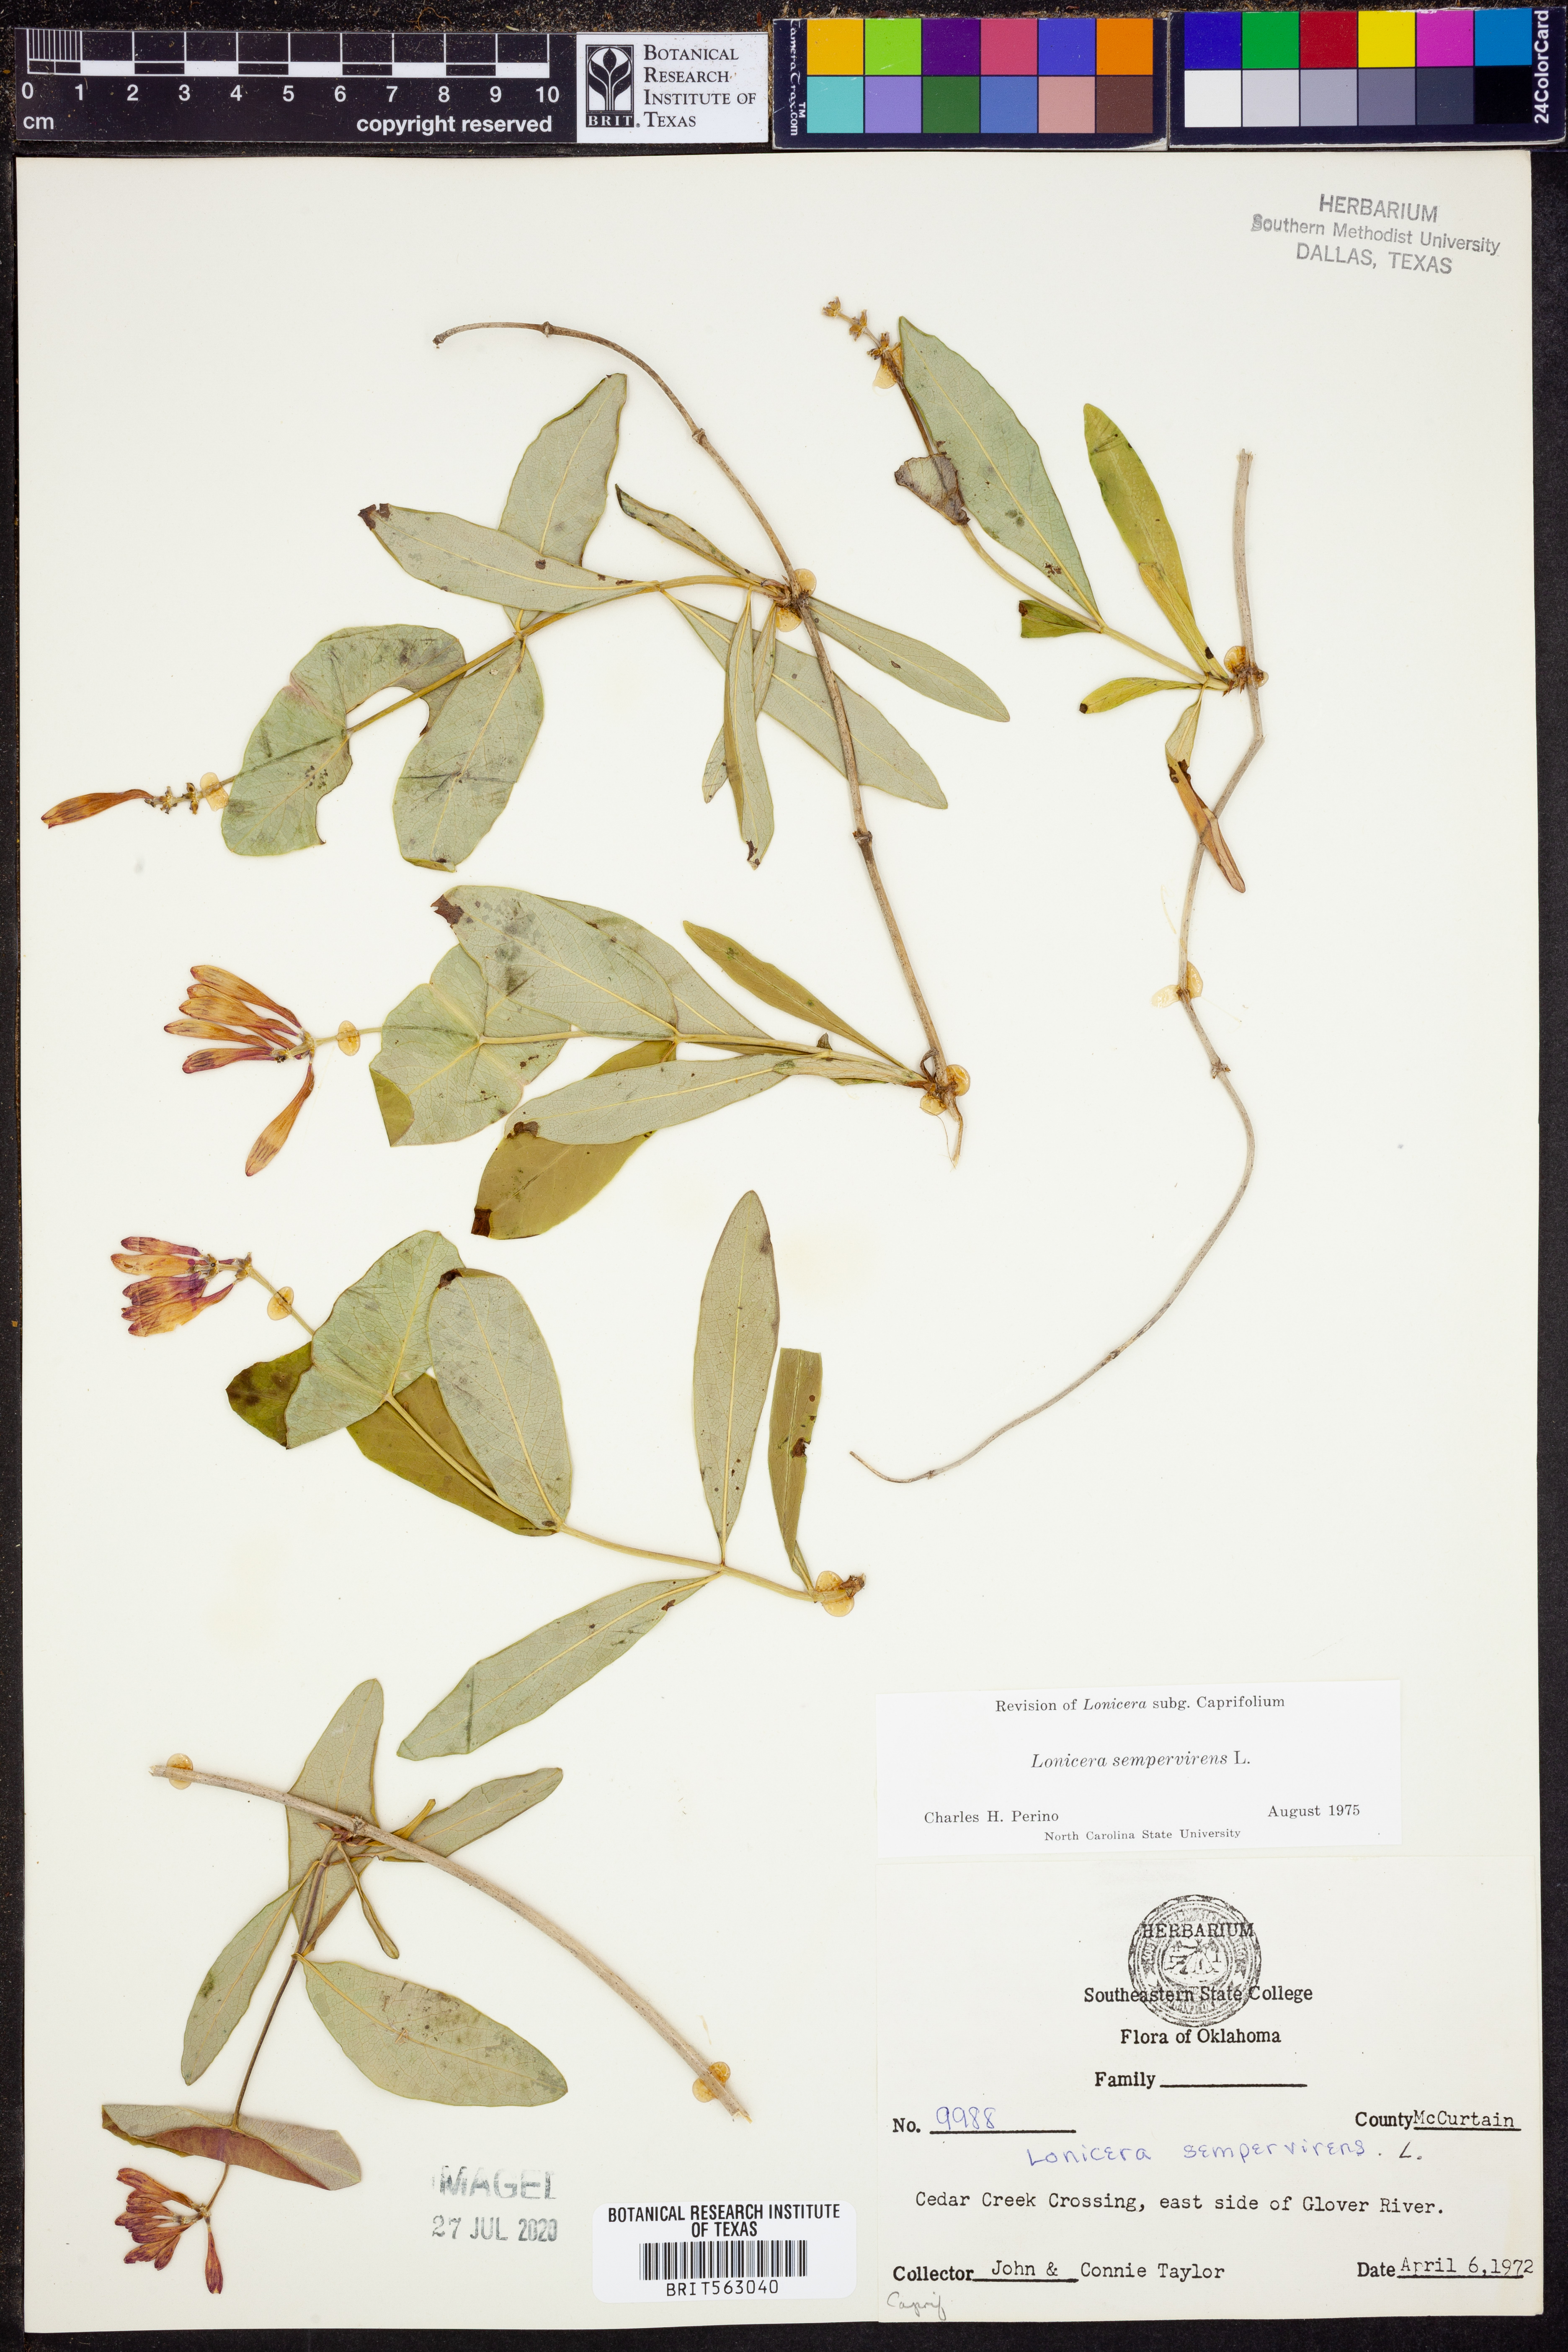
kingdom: Plantae
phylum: Tracheophyta
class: Magnoliopsida
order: Dipsacales
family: Caprifoliaceae
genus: Lonicera
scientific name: Lonicera sempervirens
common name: Coral honeysuckle
